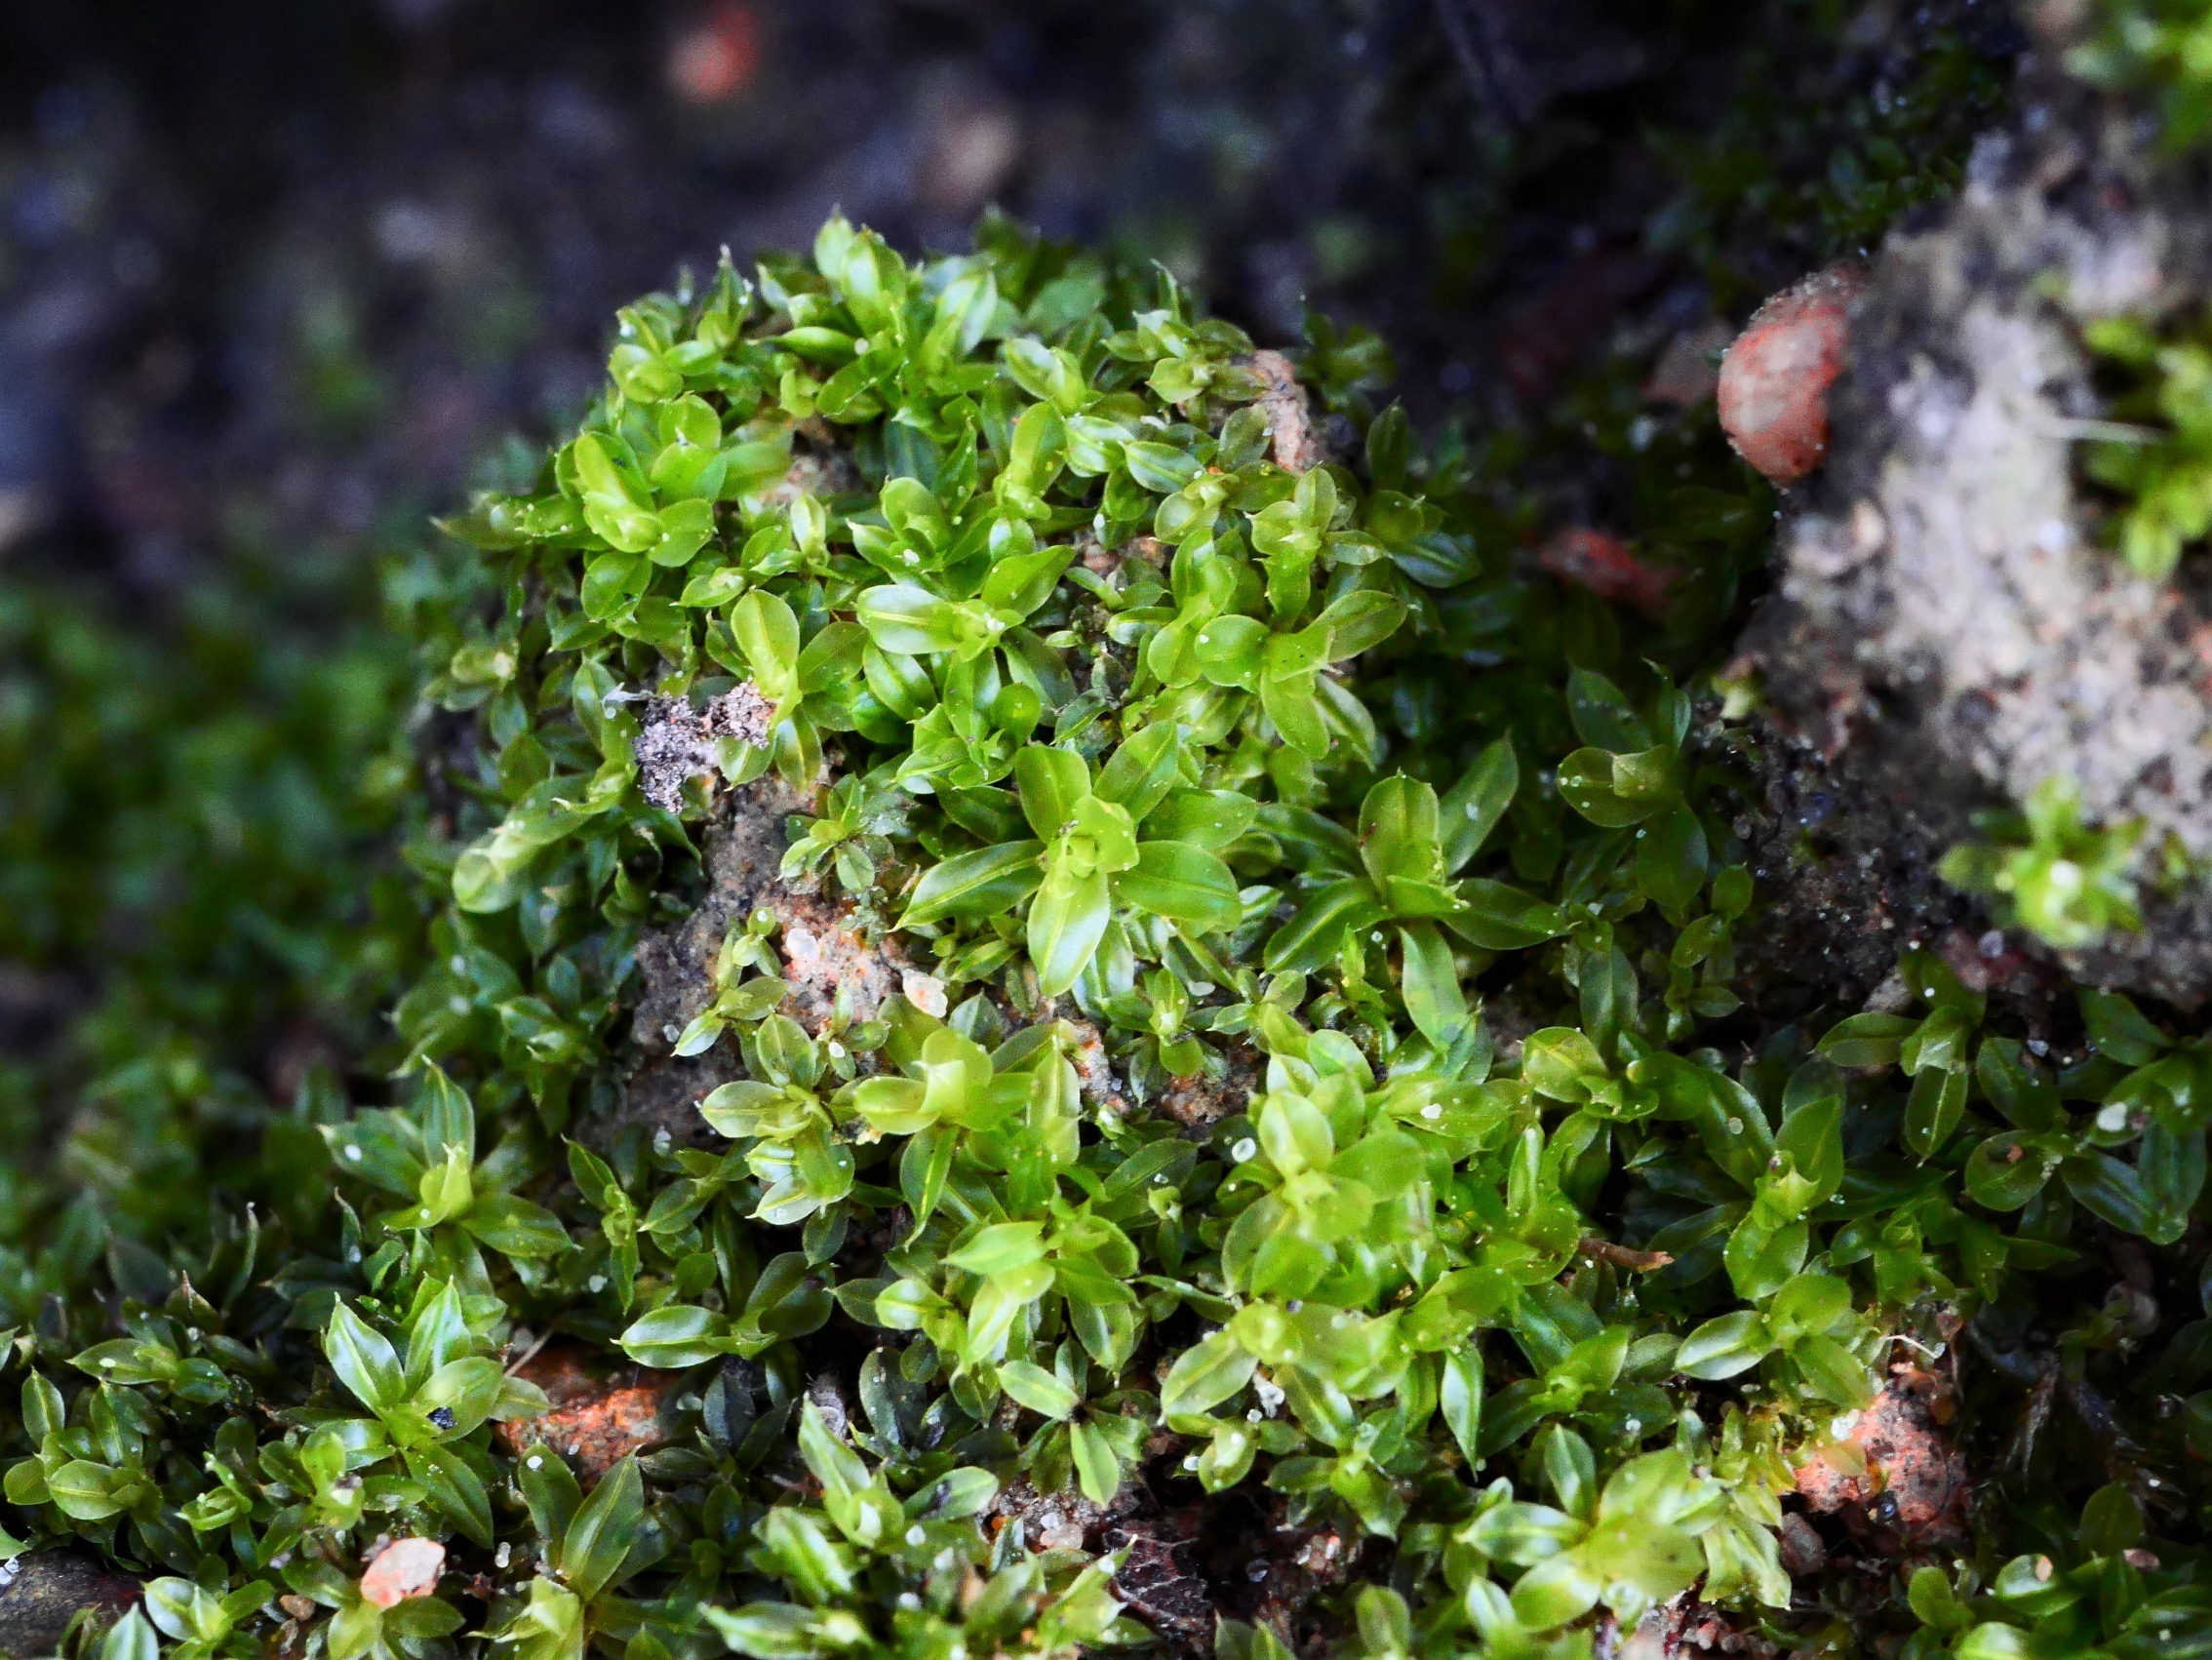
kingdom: Plantae
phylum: Bryophyta
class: Bryopsida
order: Pottiales
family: Pottiaceae
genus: Tortula
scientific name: Tortula subulata
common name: Syl-snotand
